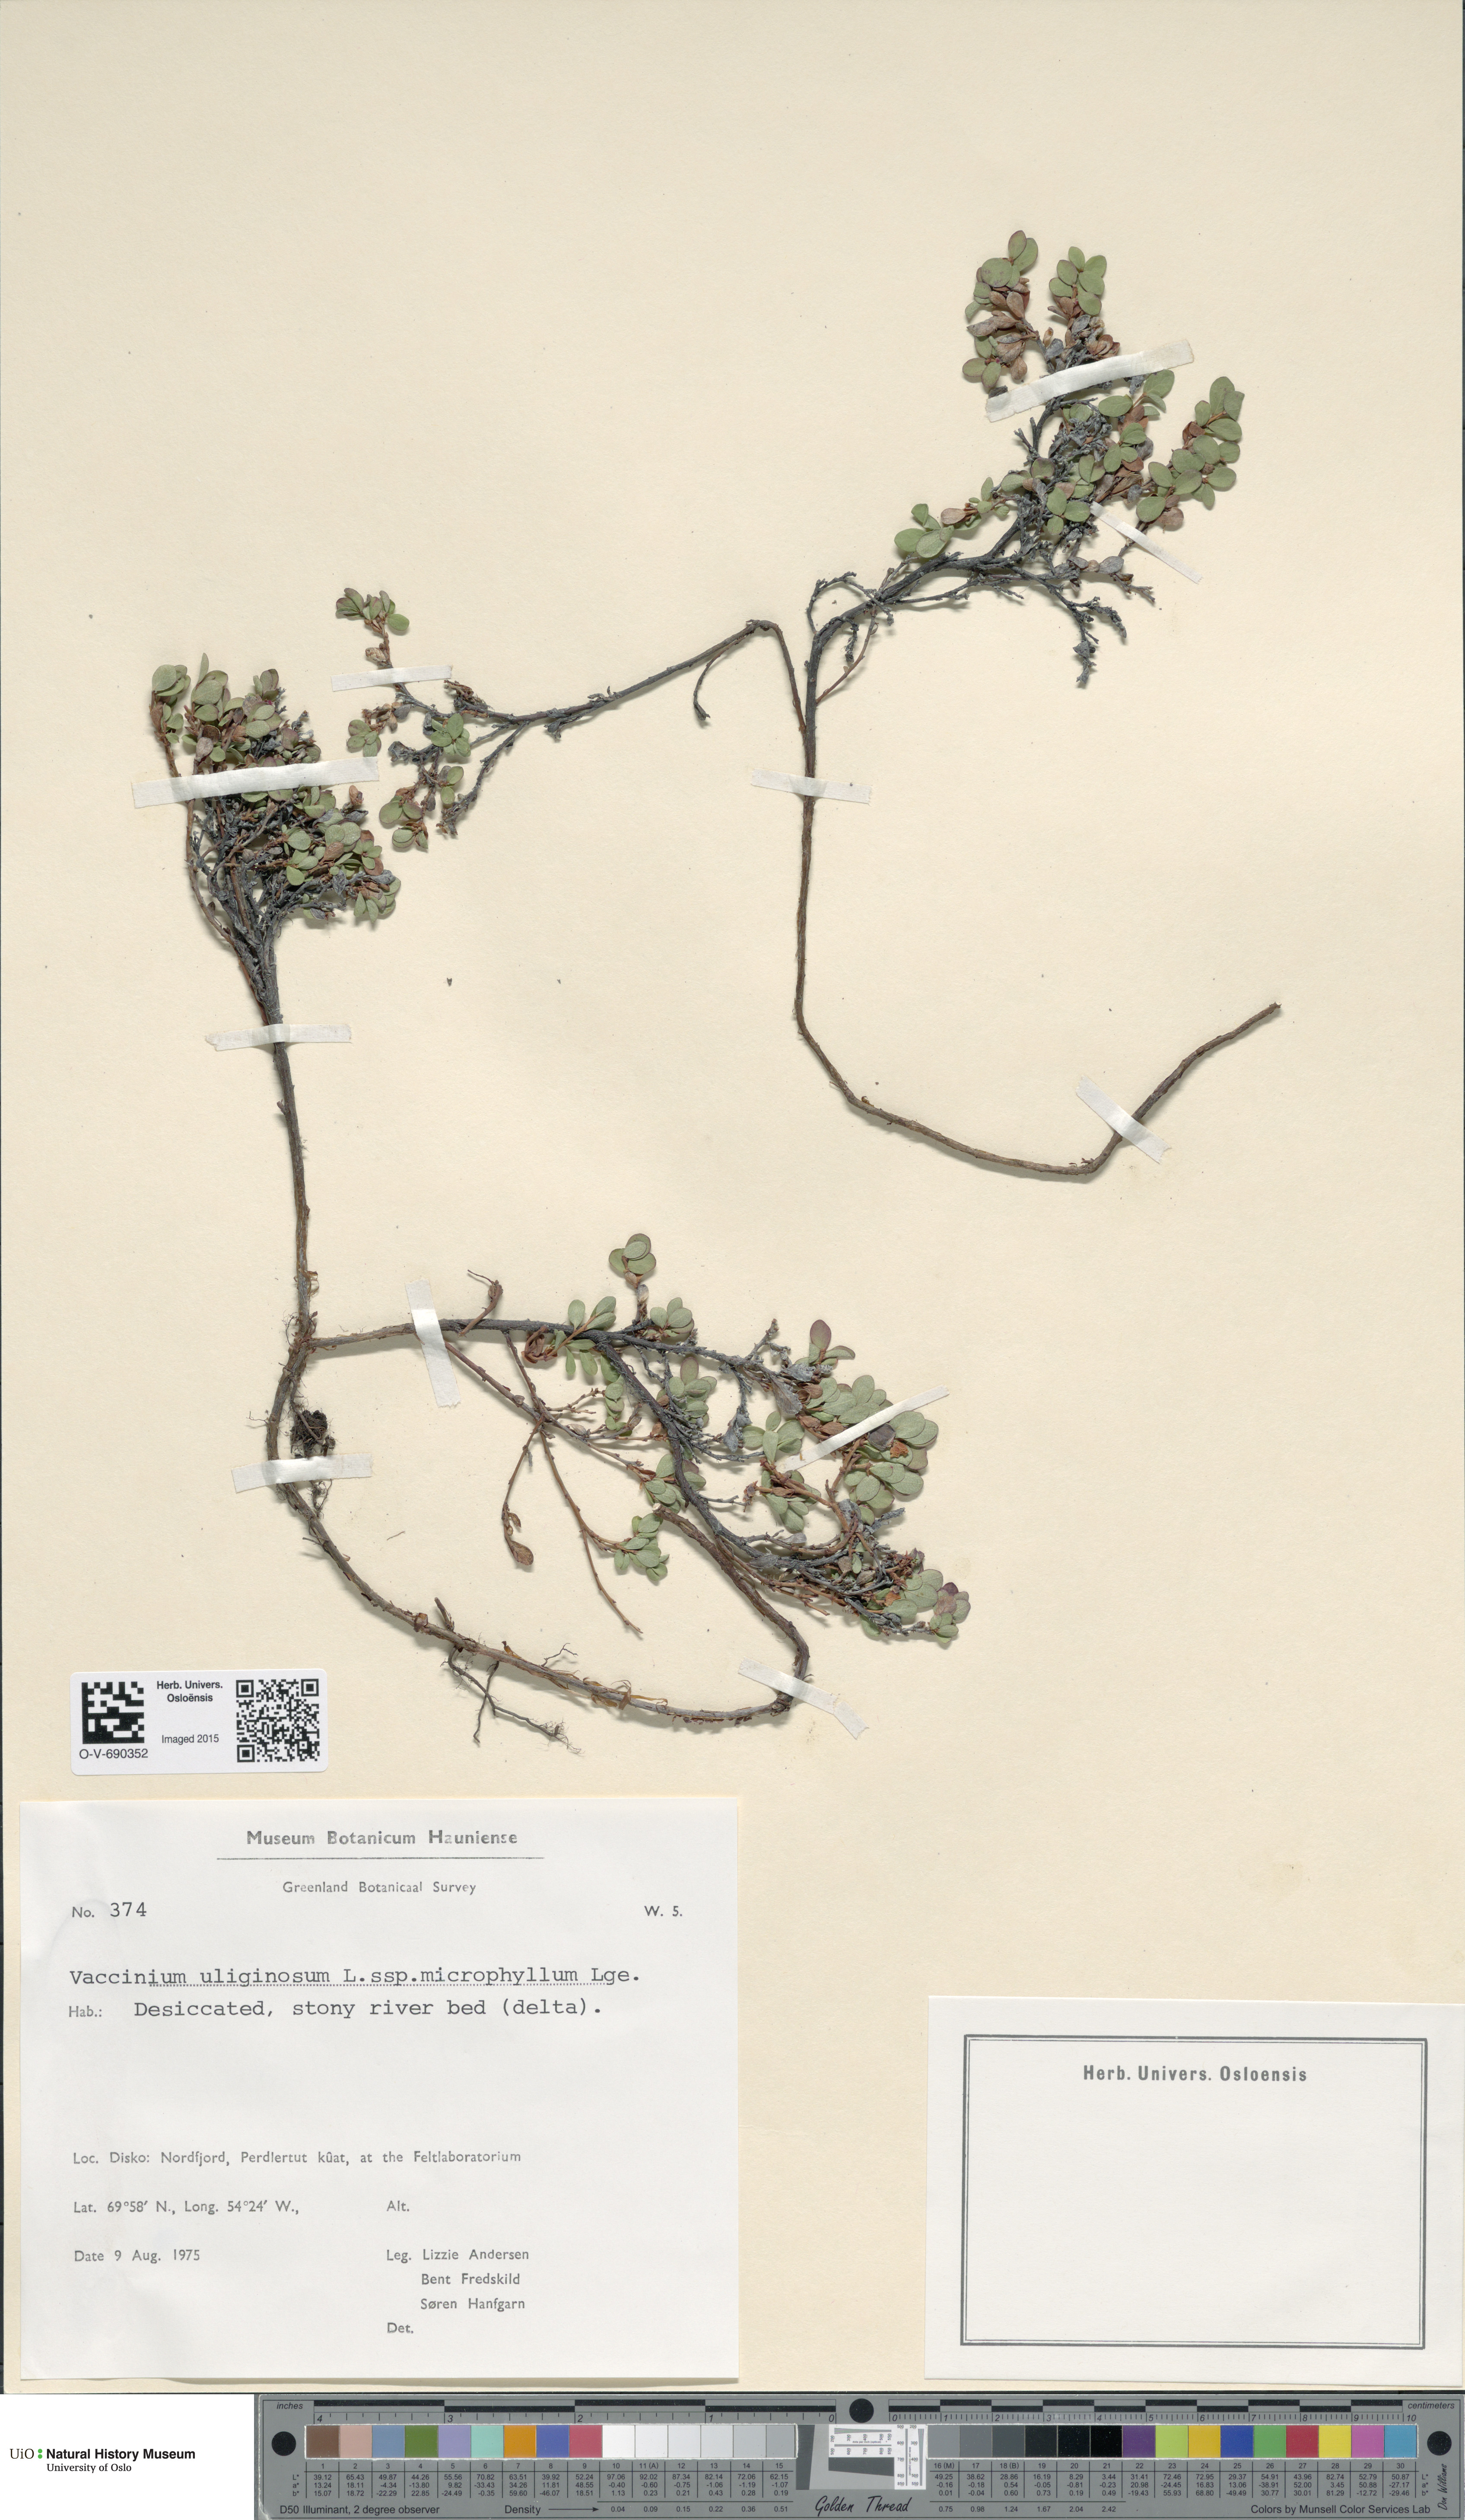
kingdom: Plantae
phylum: Tracheophyta
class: Magnoliopsida
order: Ericales
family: Ericaceae
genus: Vaccinium
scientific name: Vaccinium uliginosum
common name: Bog bilberry
